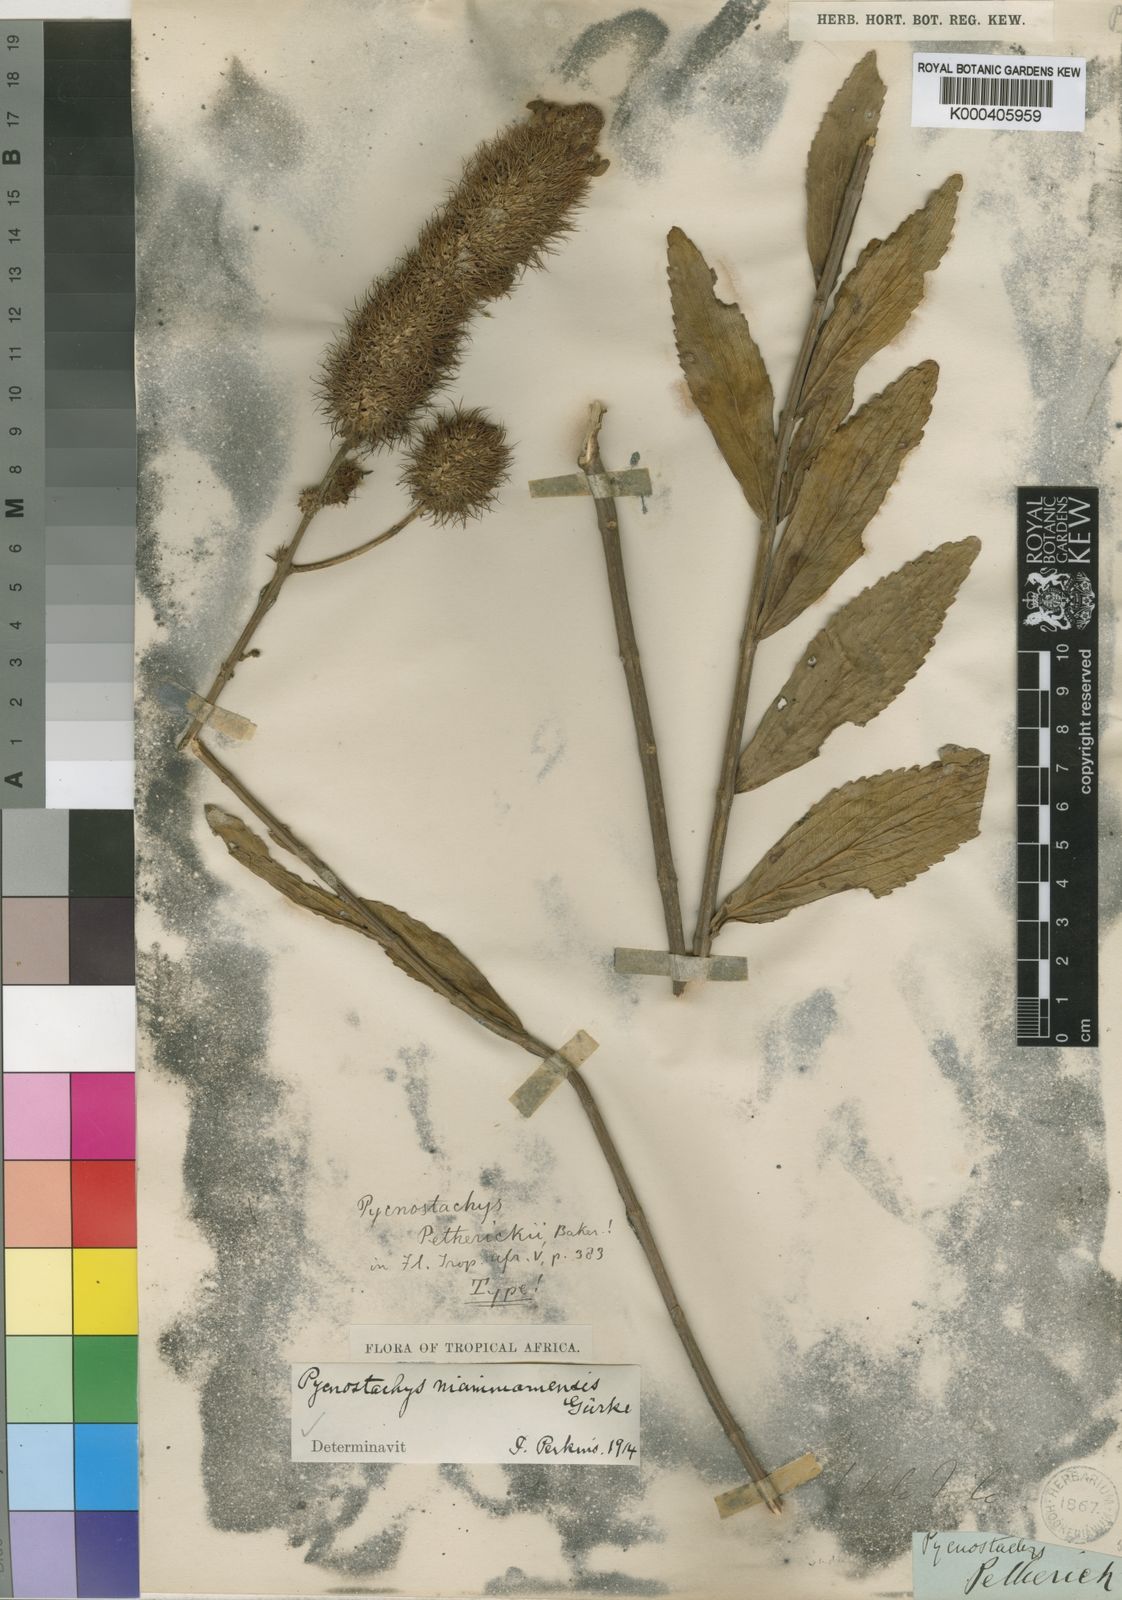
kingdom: Plantae
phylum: Tracheophyta
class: Magnoliopsida
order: Lamiales
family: Lamiaceae
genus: Coleus
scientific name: Coleus
